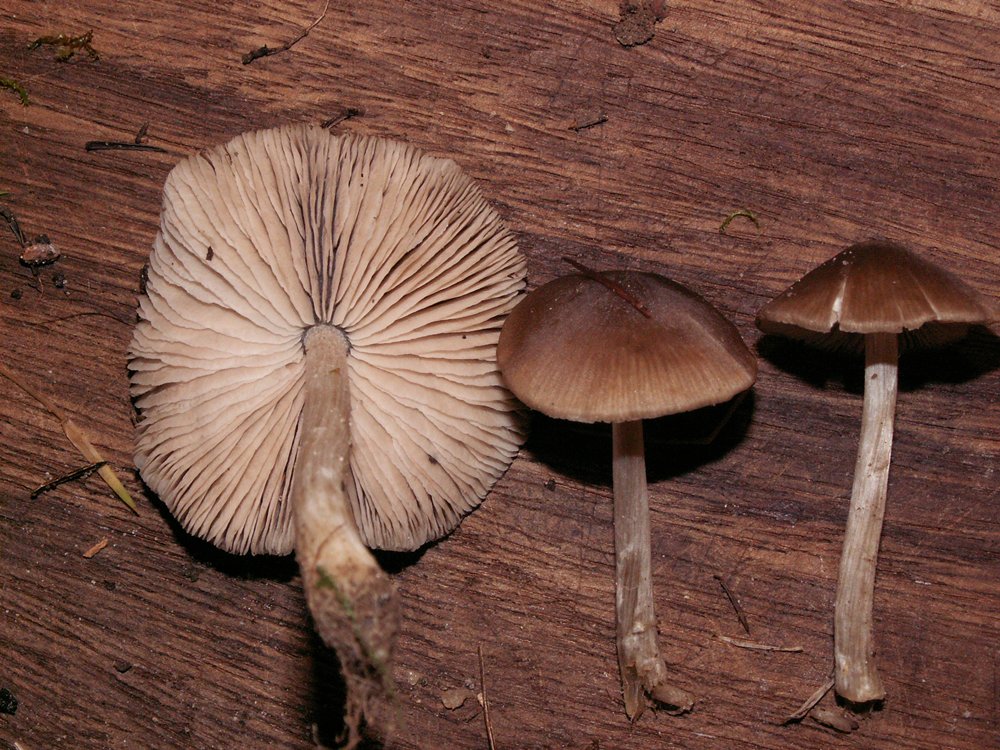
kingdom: Fungi
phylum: Basidiomycota
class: Agaricomycetes
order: Agaricales
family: Entolomataceae
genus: Entoloma
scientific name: Entoloma conferendum
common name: stjernesporet rødblad
